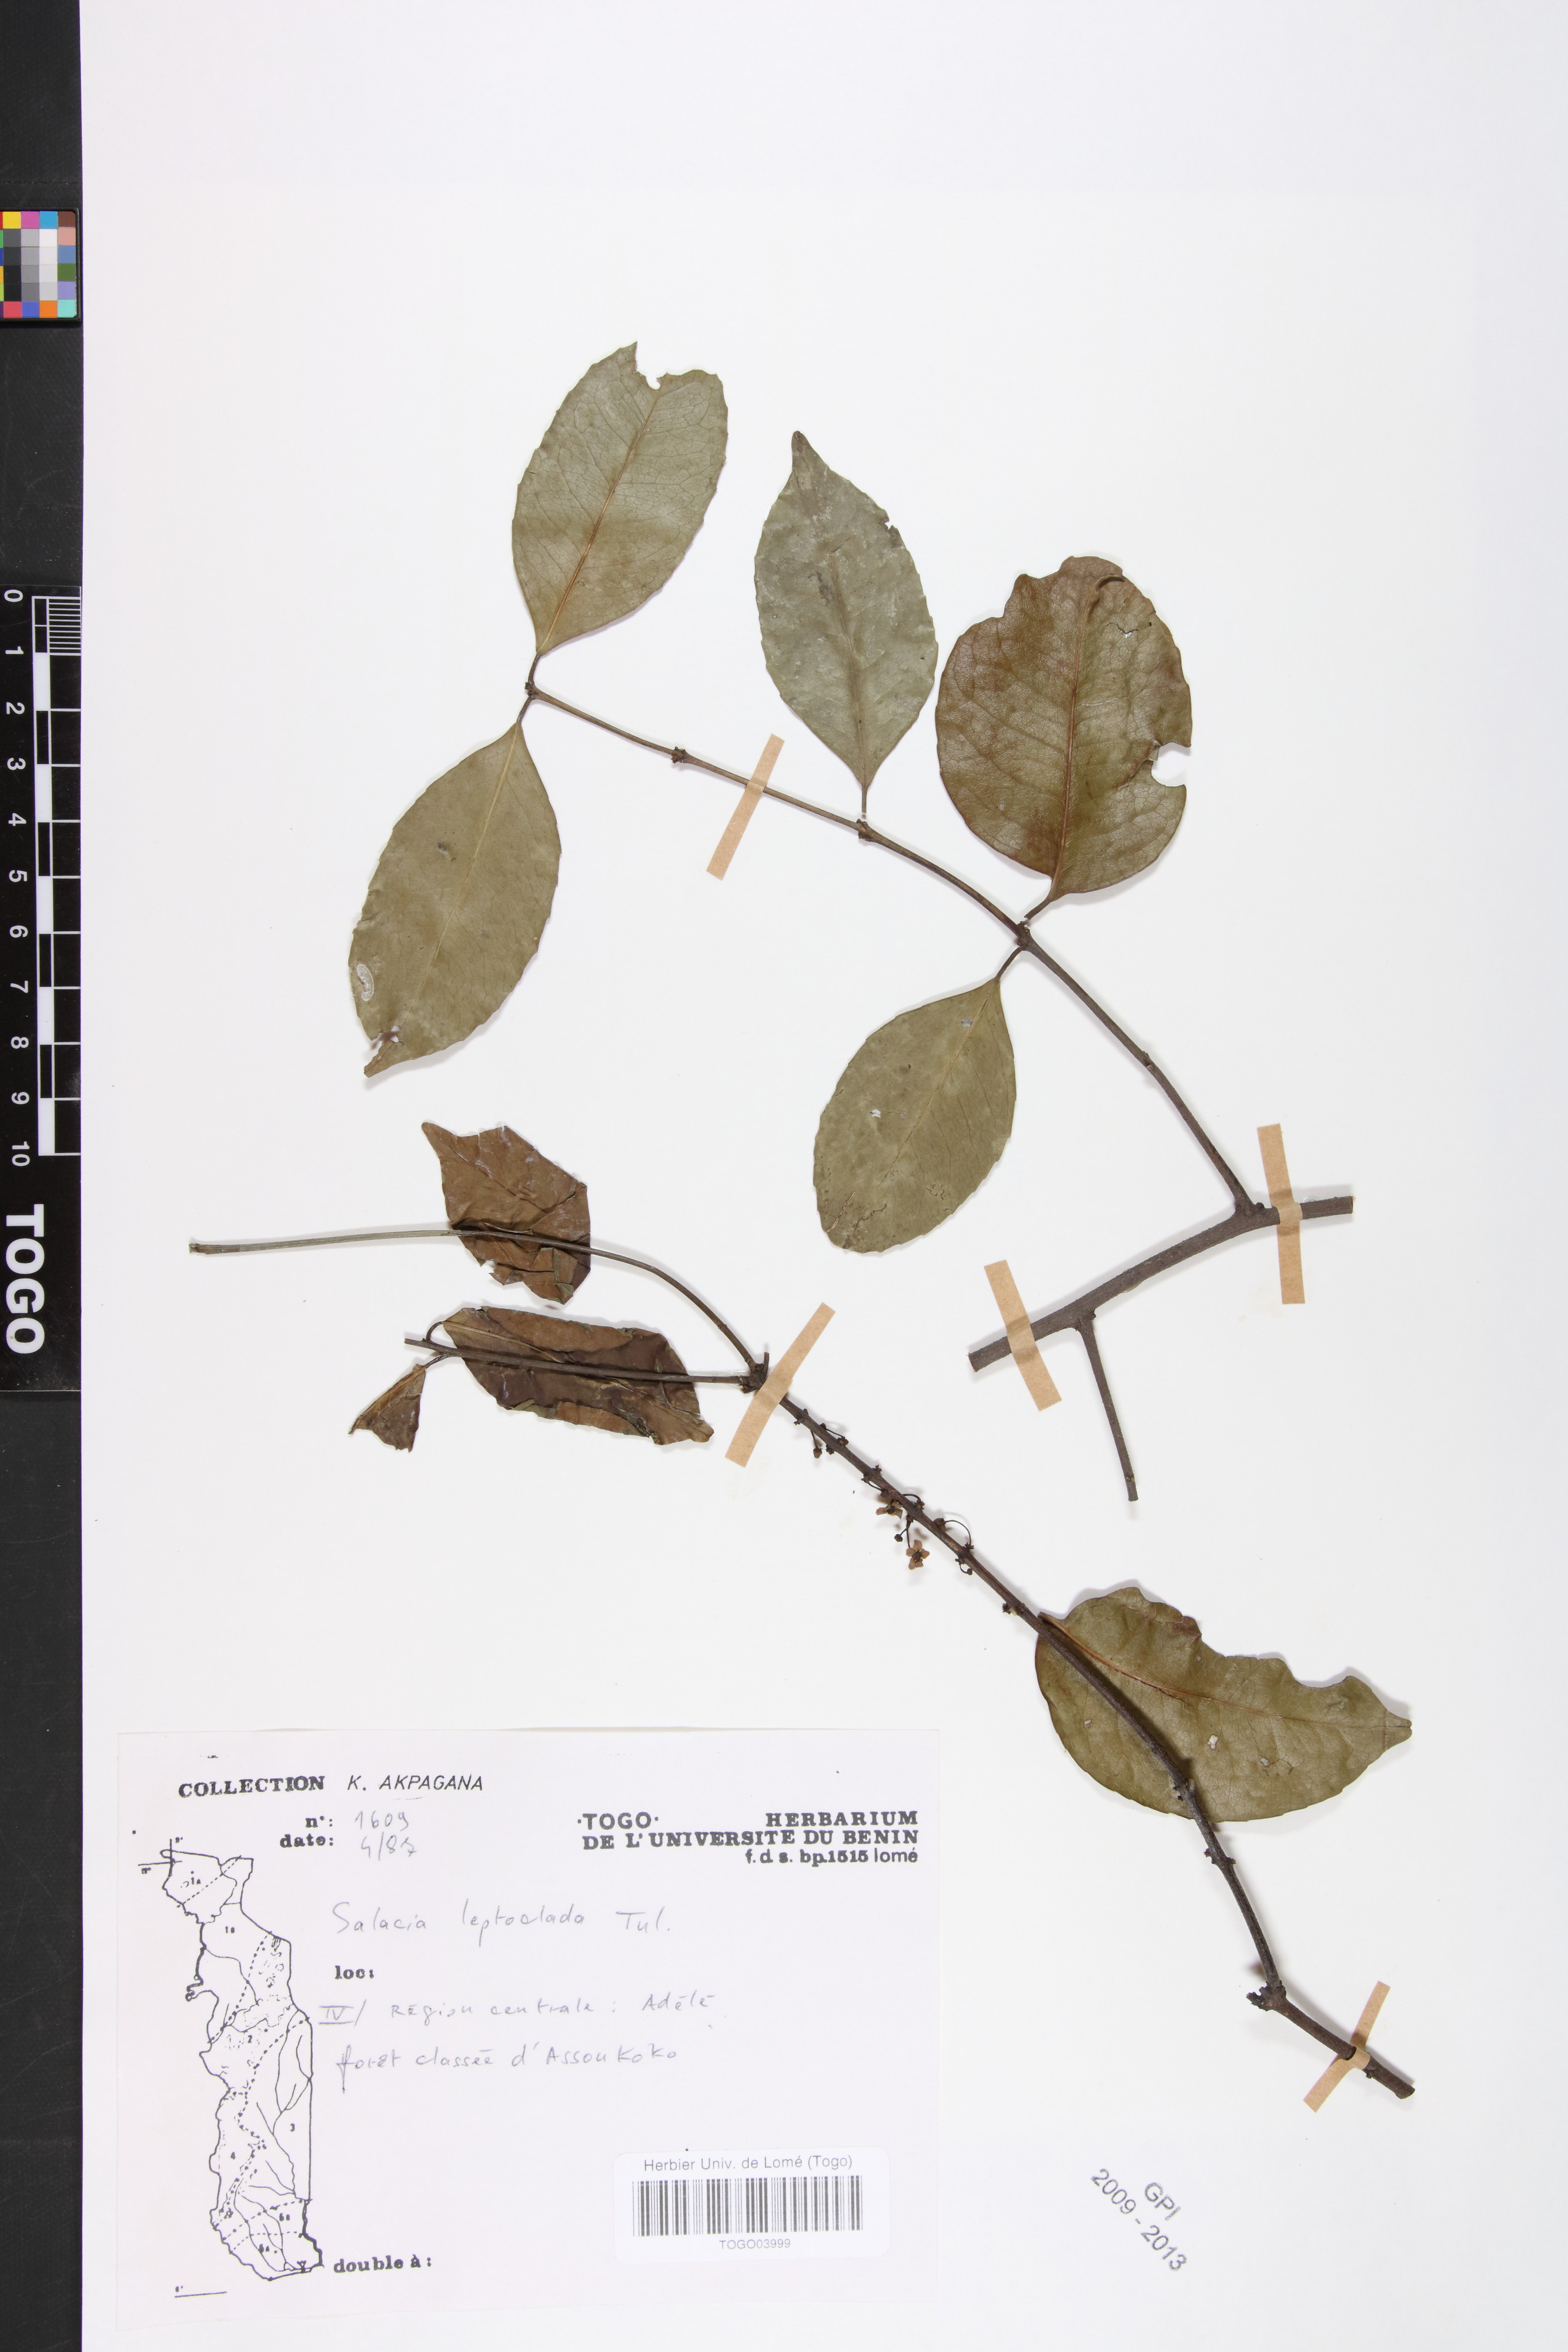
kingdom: Plantae
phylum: Tracheophyta
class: Magnoliopsida
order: Celastrales
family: Celastraceae
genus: Salacia
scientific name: Salacia leptoclada
